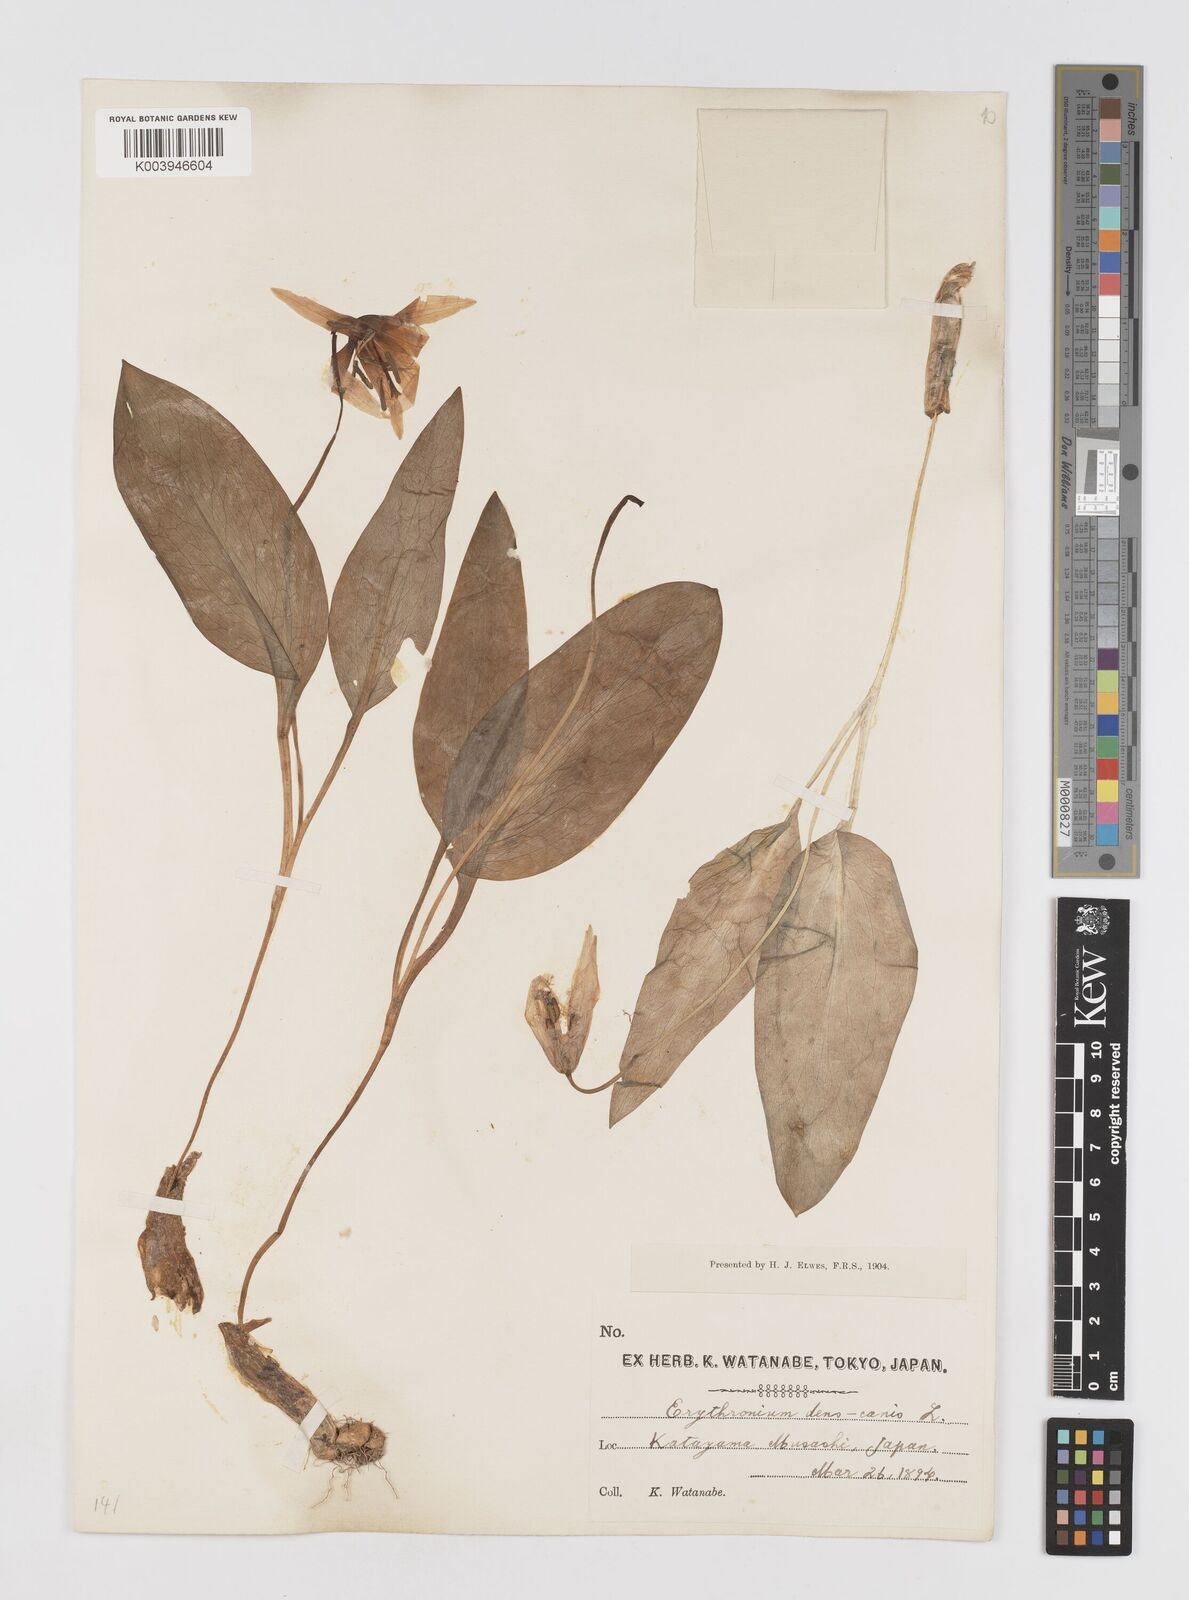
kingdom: Plantae
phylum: Tracheophyta
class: Liliopsida
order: Liliales
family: Liliaceae
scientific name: Liliaceae
